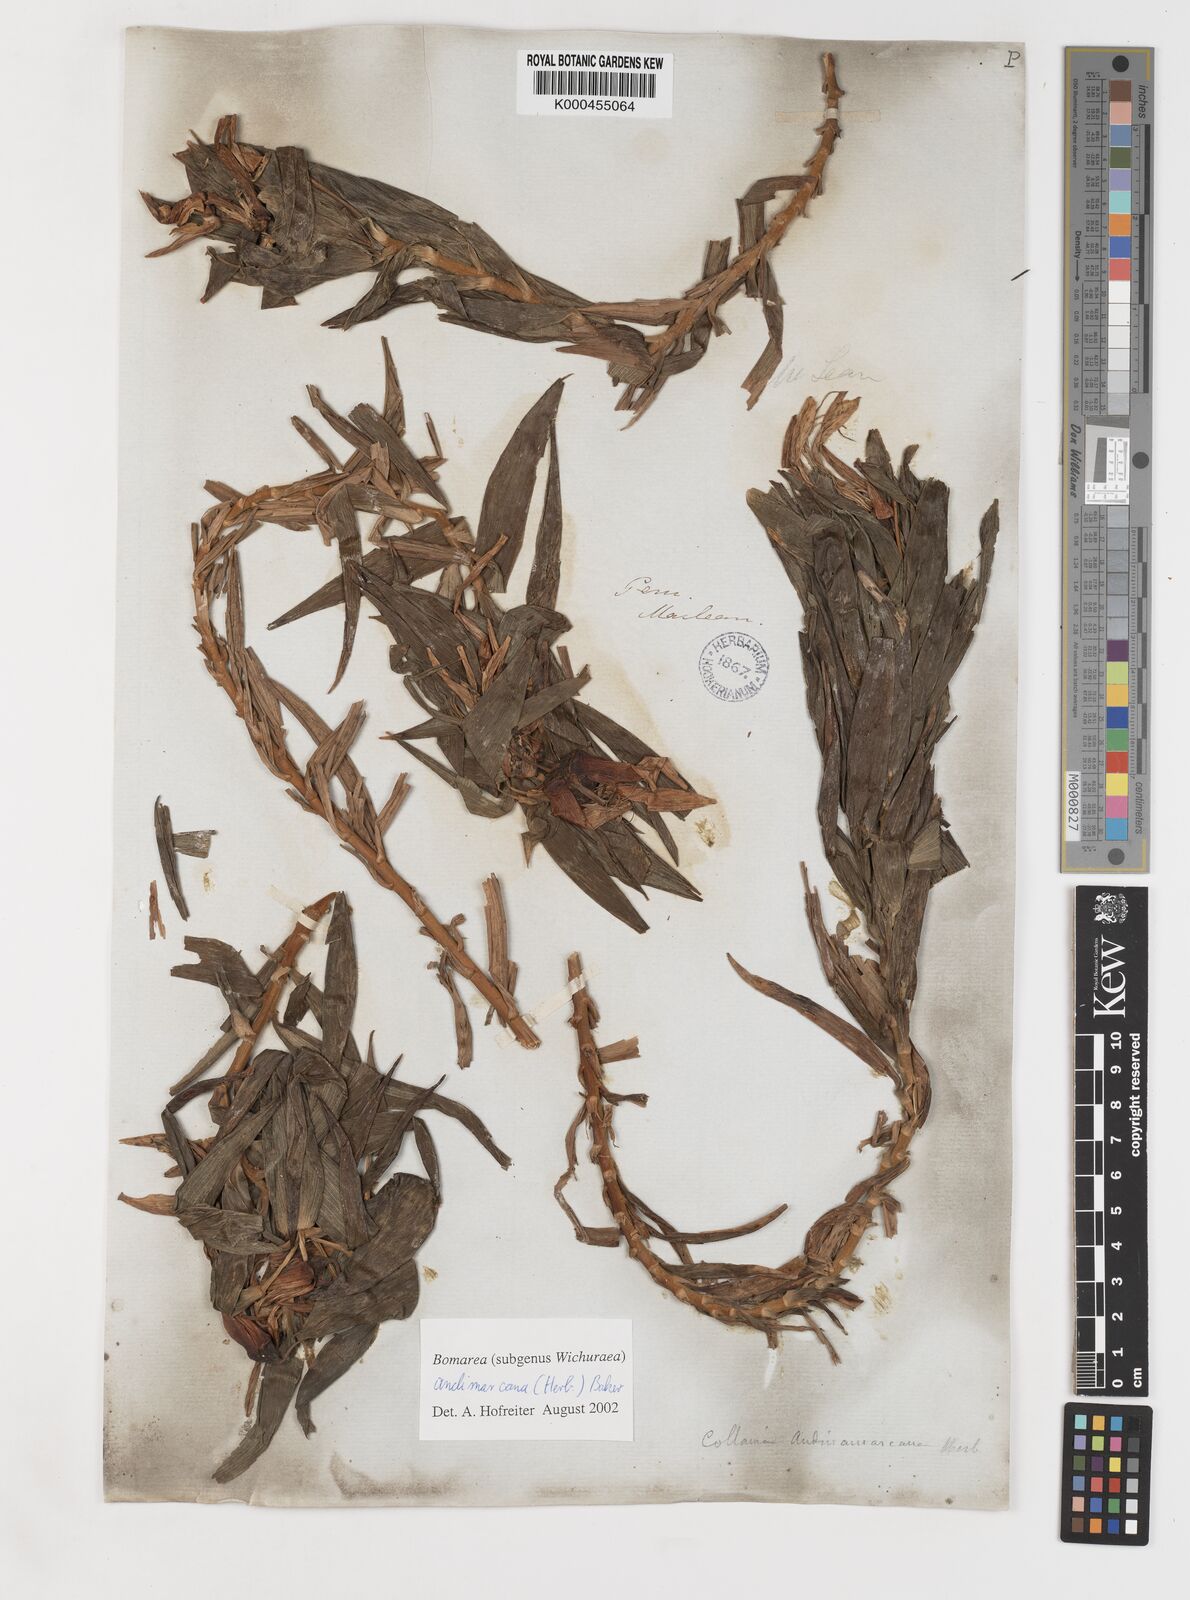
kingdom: Plantae
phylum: Tracheophyta
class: Liliopsida
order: Liliales
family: Alstroemeriaceae
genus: Bomarea
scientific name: Bomarea andimarcana
